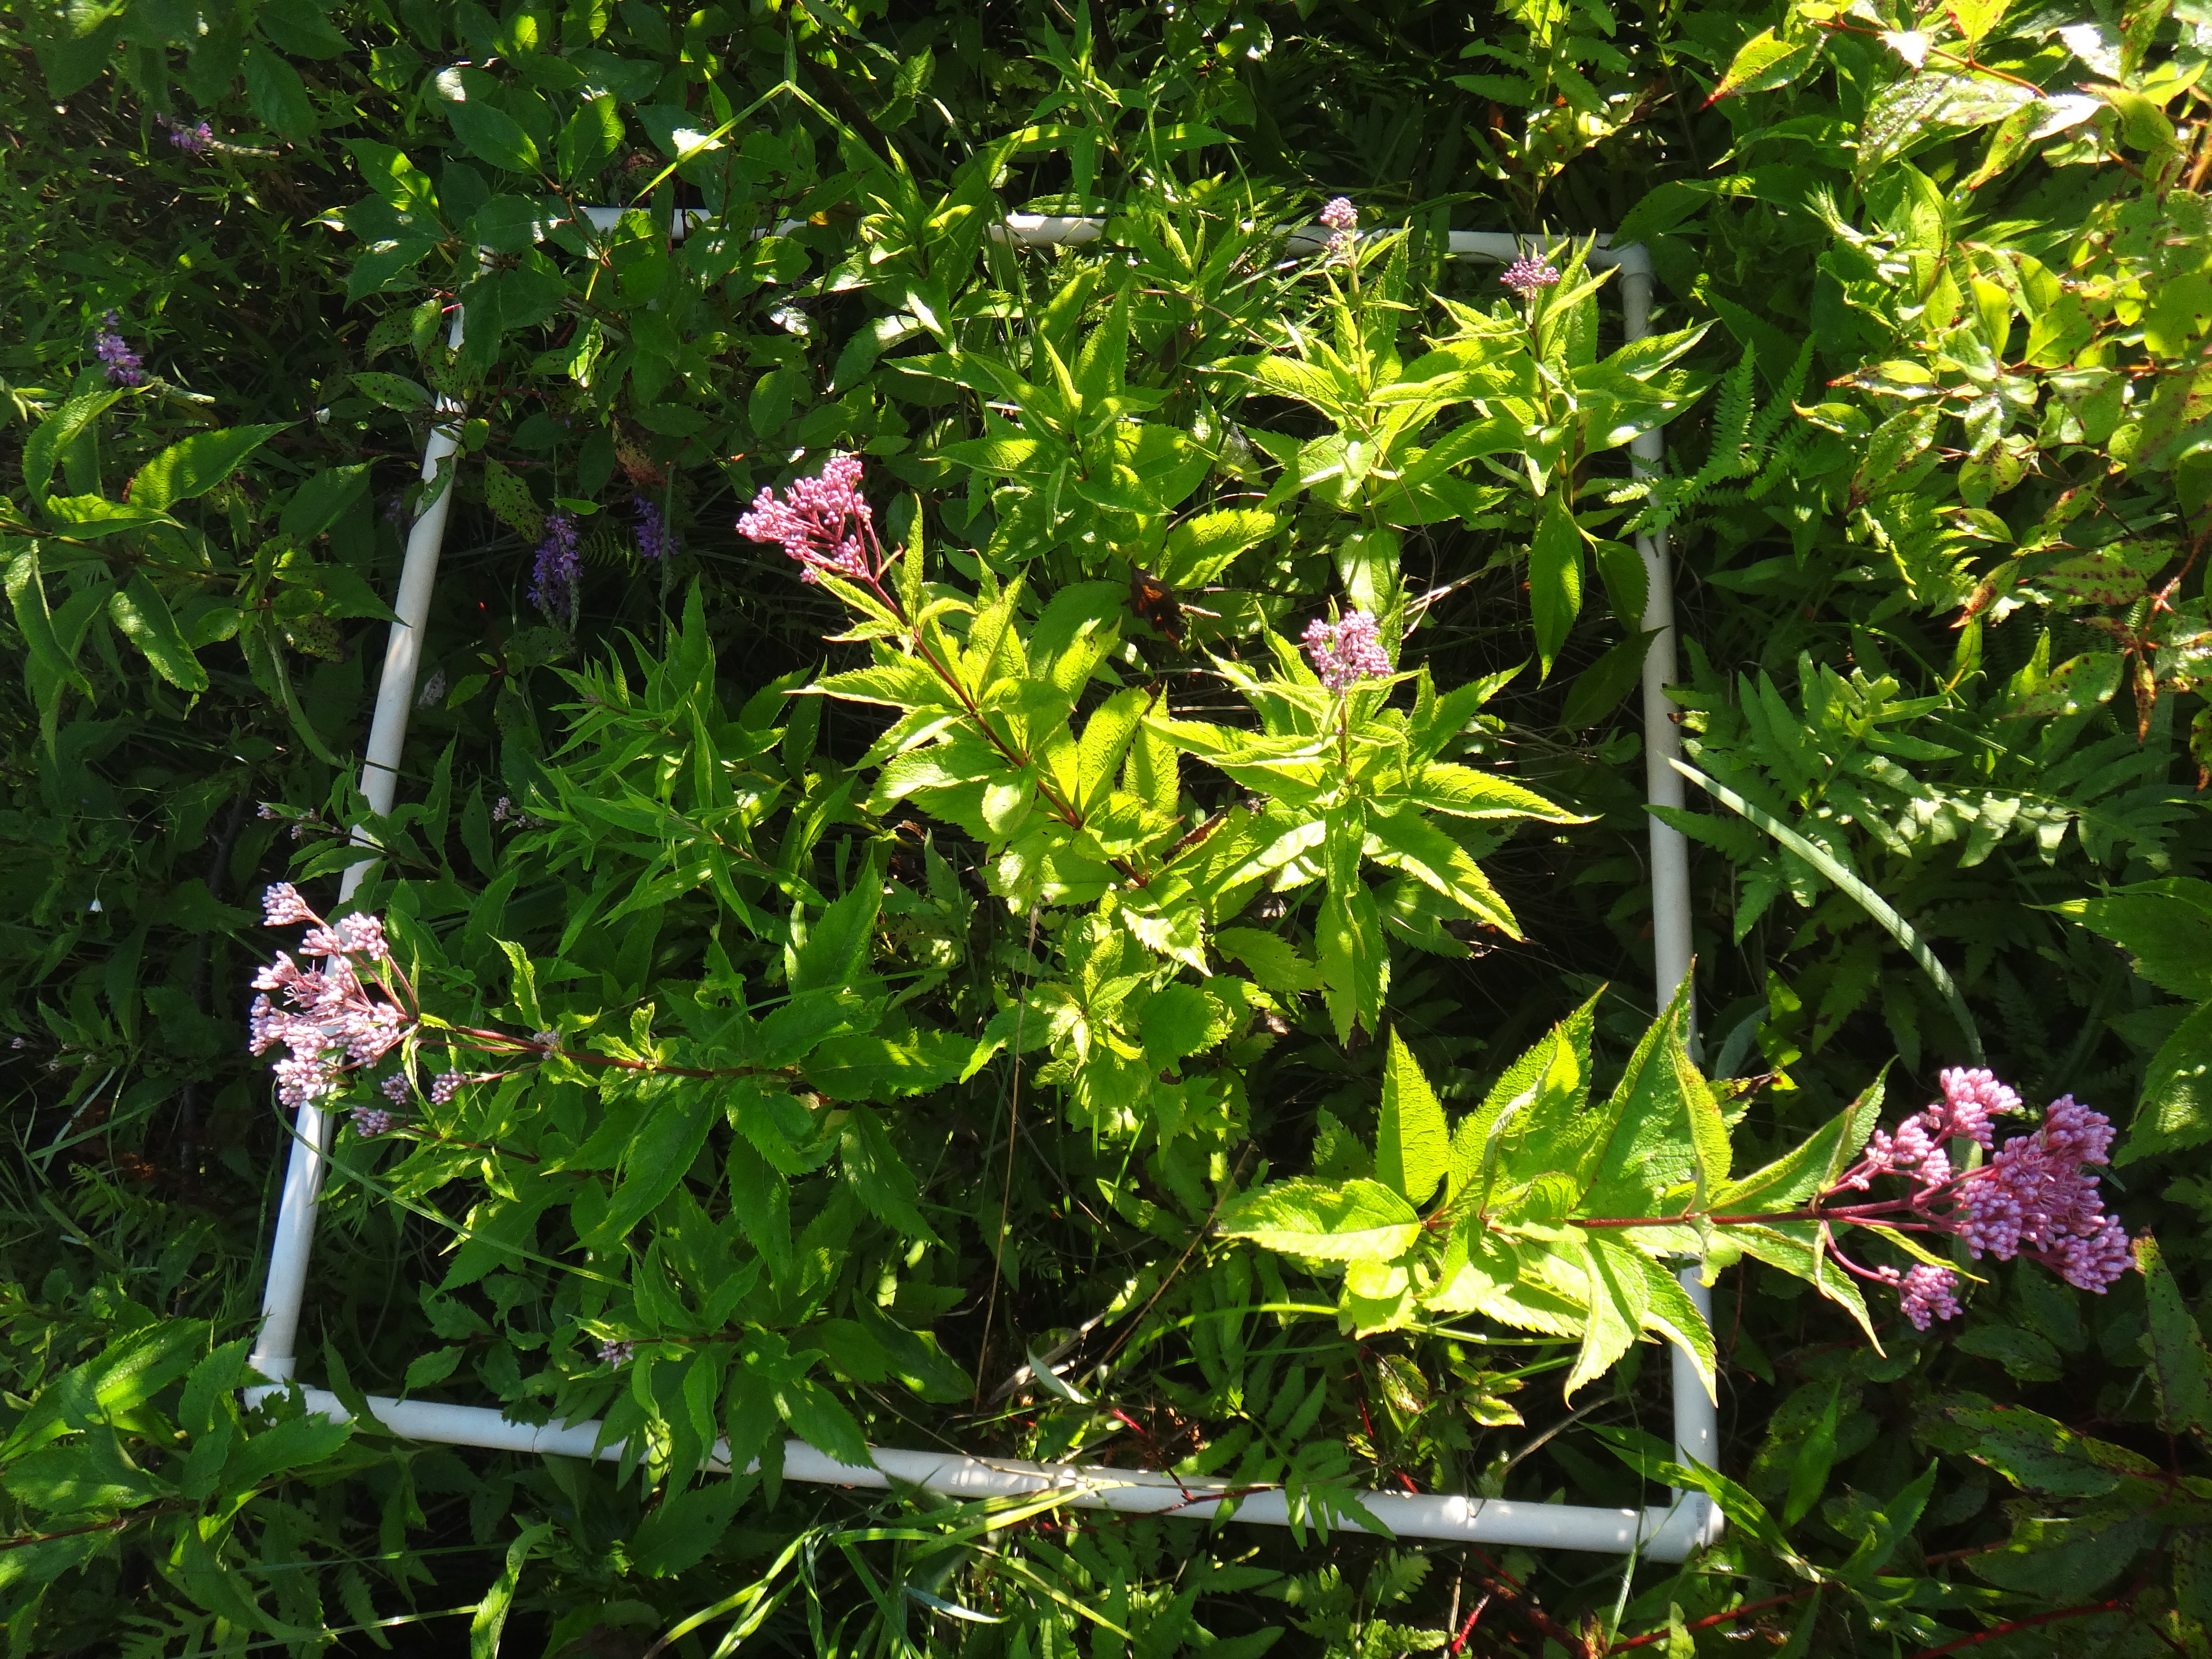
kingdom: Plantae
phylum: Tracheophyta
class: Liliopsida
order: Poales
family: Poaceae
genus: Agrostis
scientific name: Agrostis gigantea
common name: Black bent
